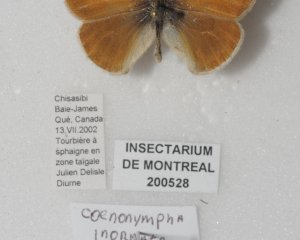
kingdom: Animalia
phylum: Arthropoda
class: Insecta
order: Lepidoptera
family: Nymphalidae
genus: Coenonympha
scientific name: Coenonympha tullia
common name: Large Heath
